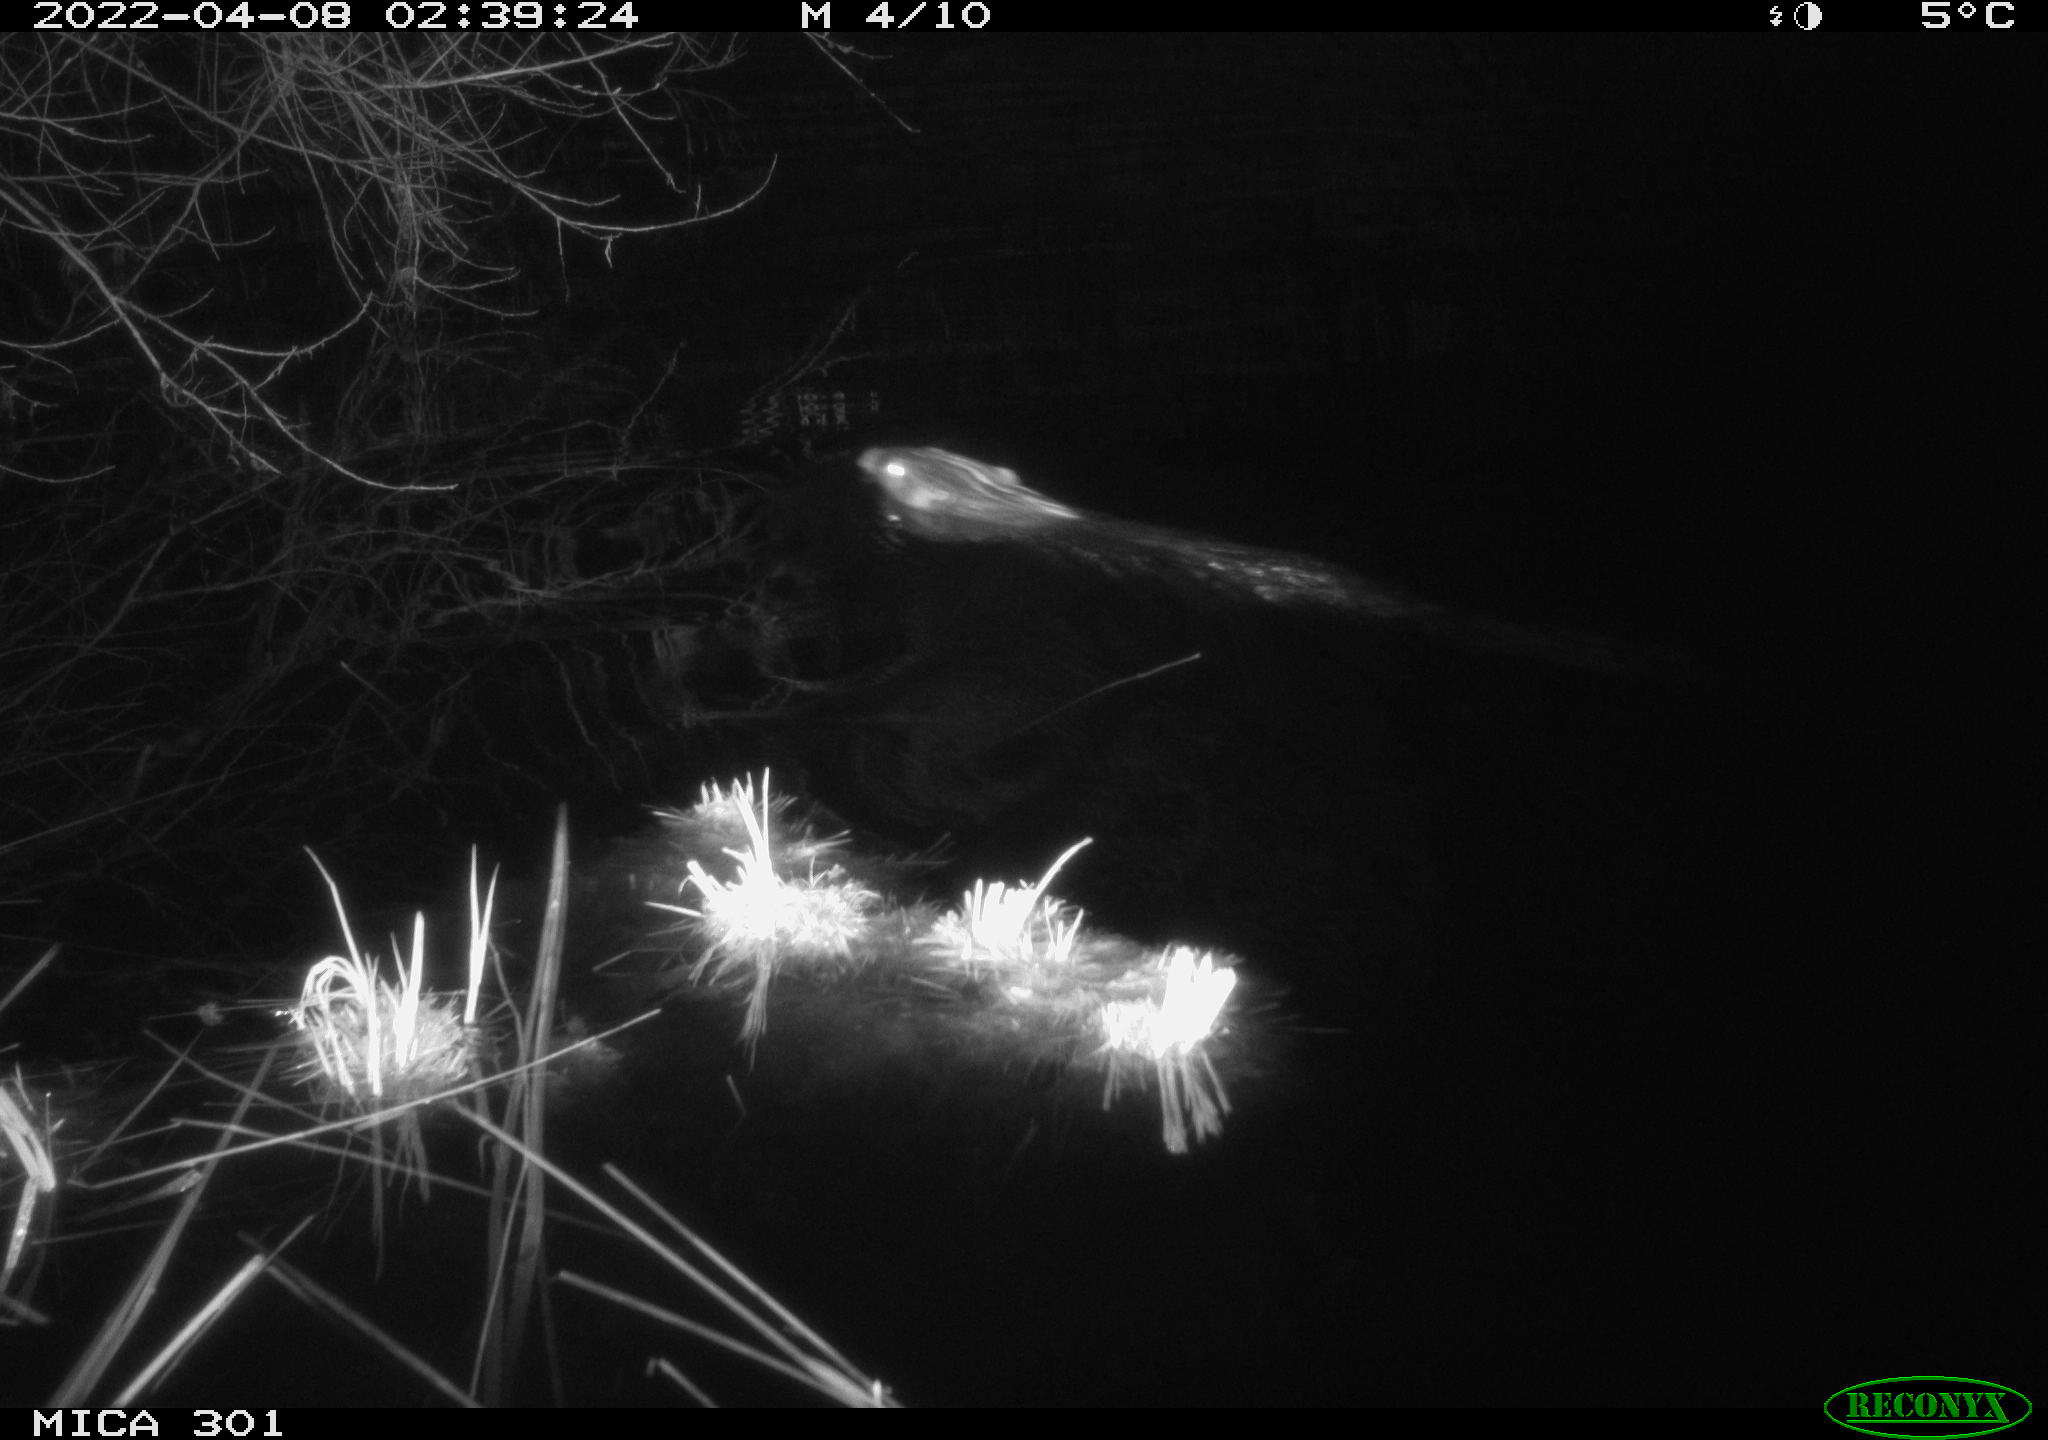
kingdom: Animalia
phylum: Chordata
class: Mammalia
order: Rodentia
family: Castoridae
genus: Castor
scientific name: Castor fiber
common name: Eurasian beaver
